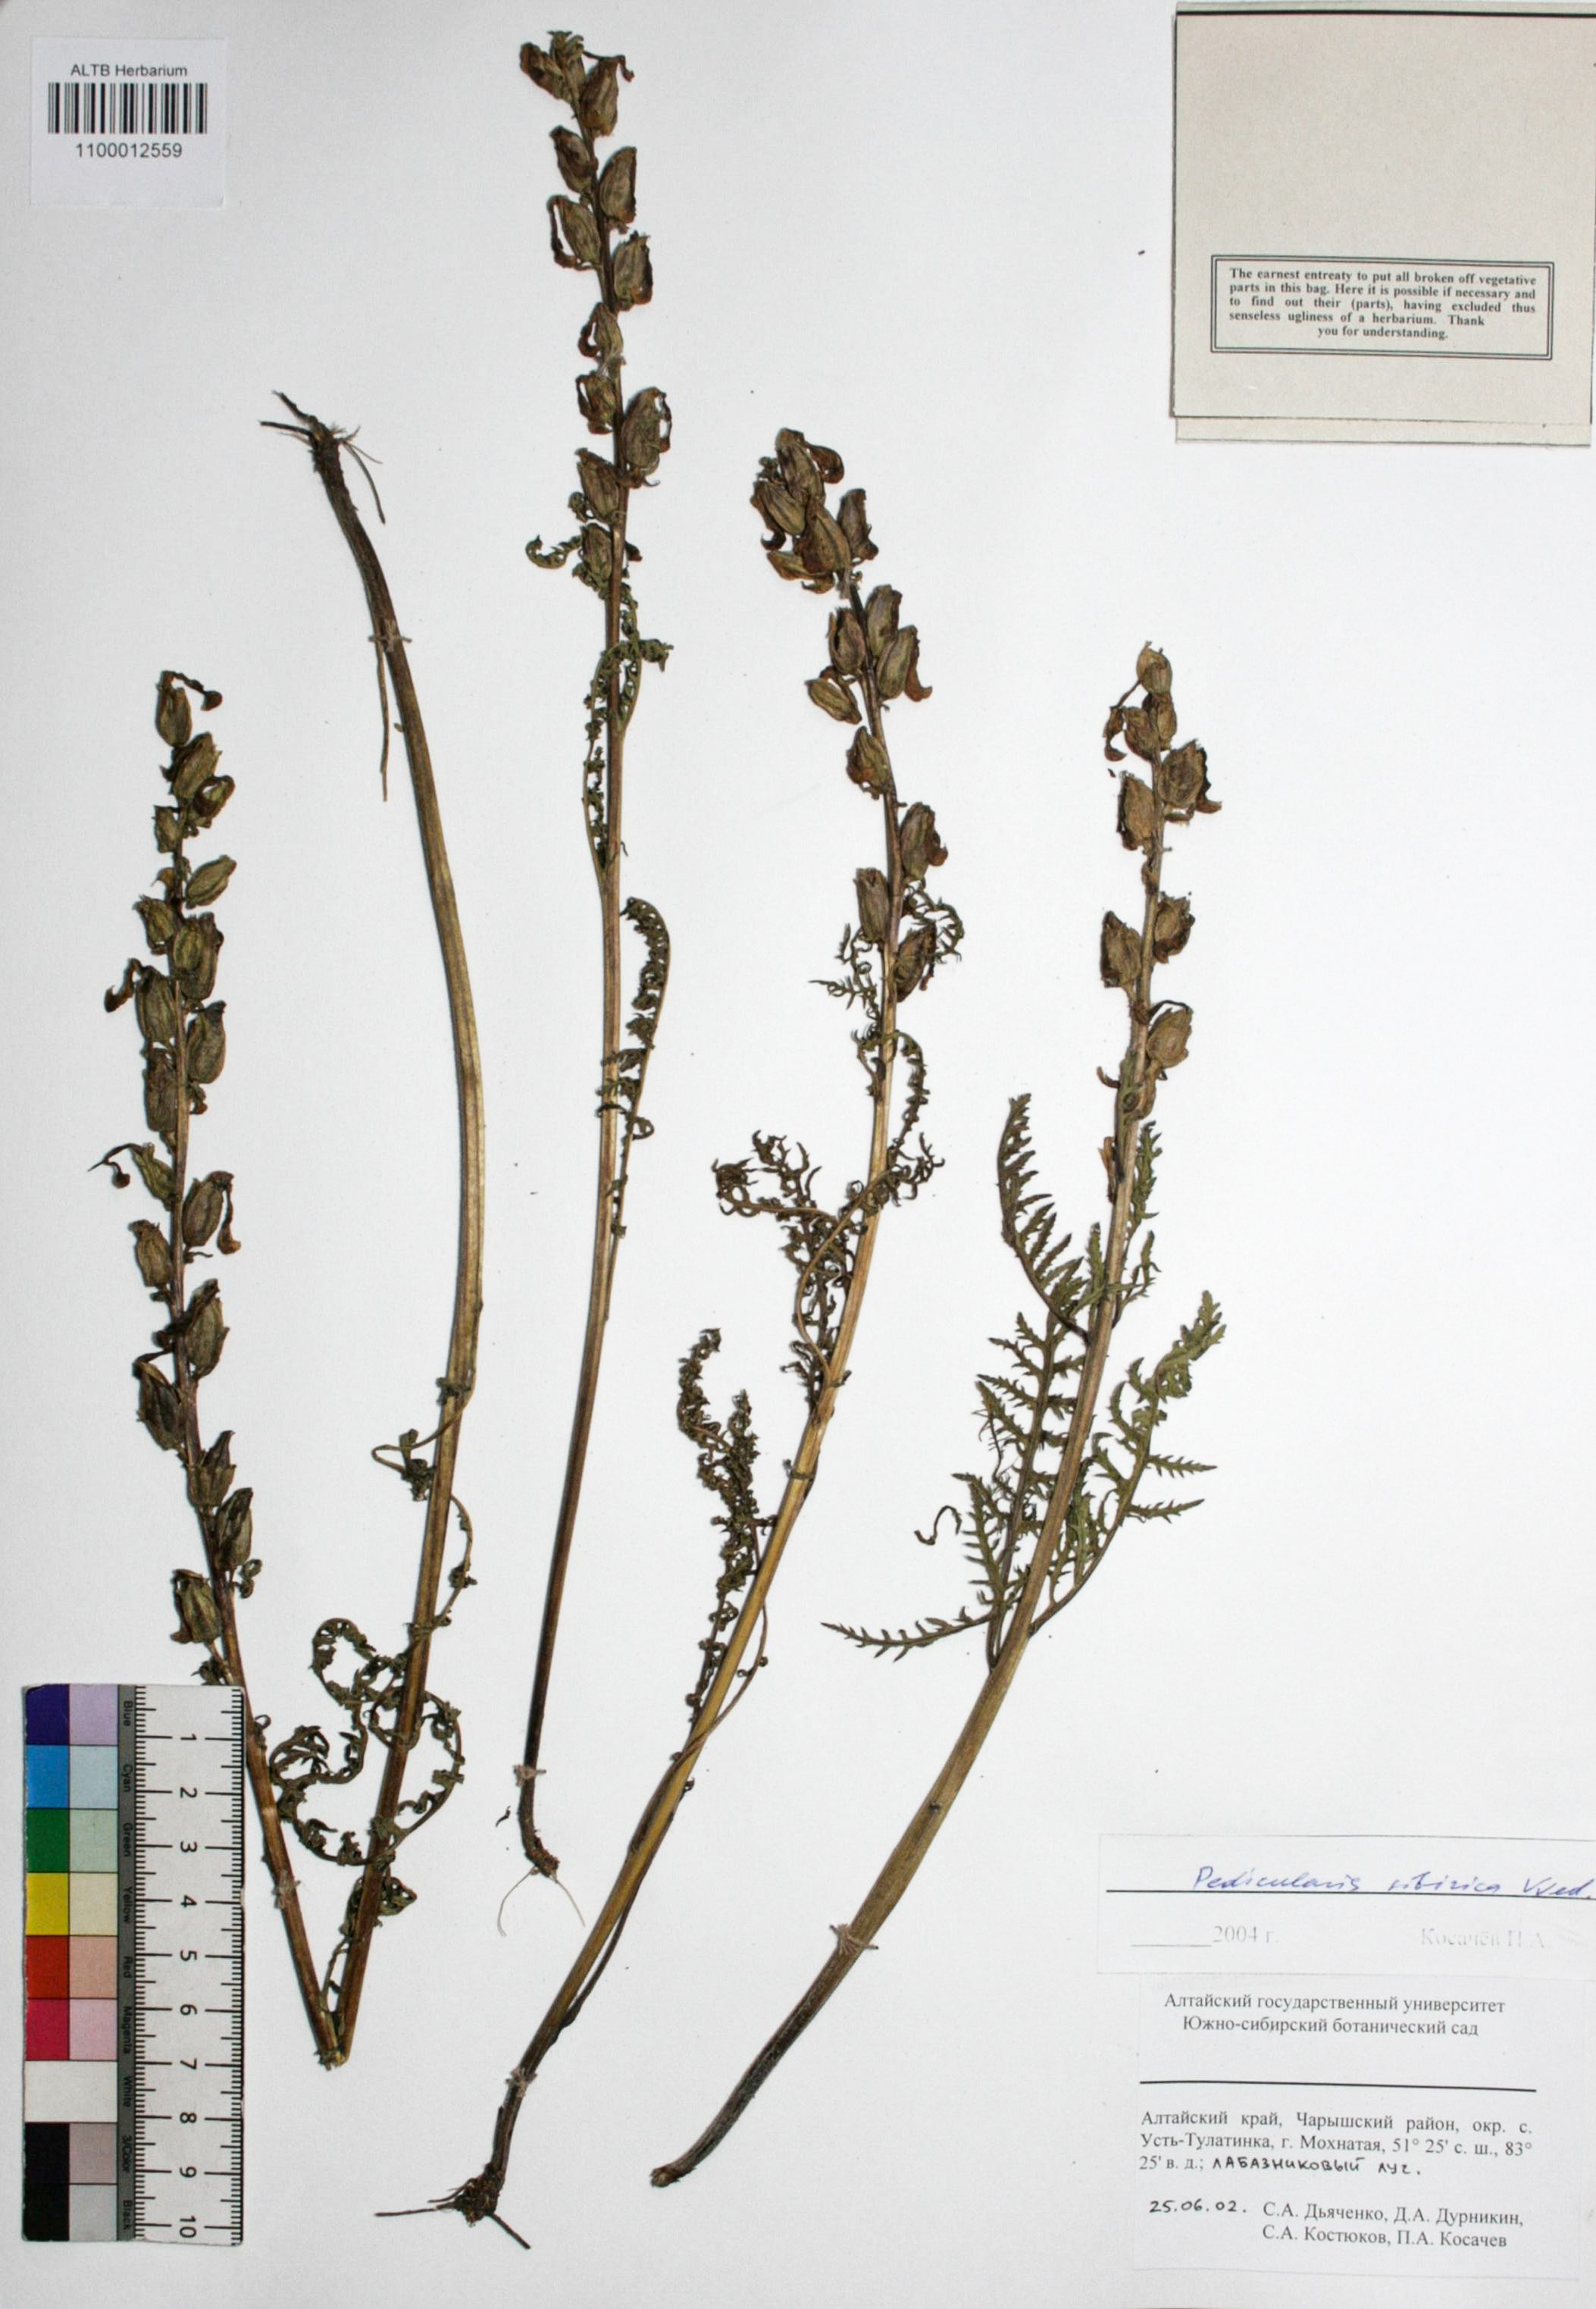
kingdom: Plantae
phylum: Tracheophyta
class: Magnoliopsida
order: Lamiales
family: Orobanchaceae
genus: Pedicularis
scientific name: Pedicularis sibirica
